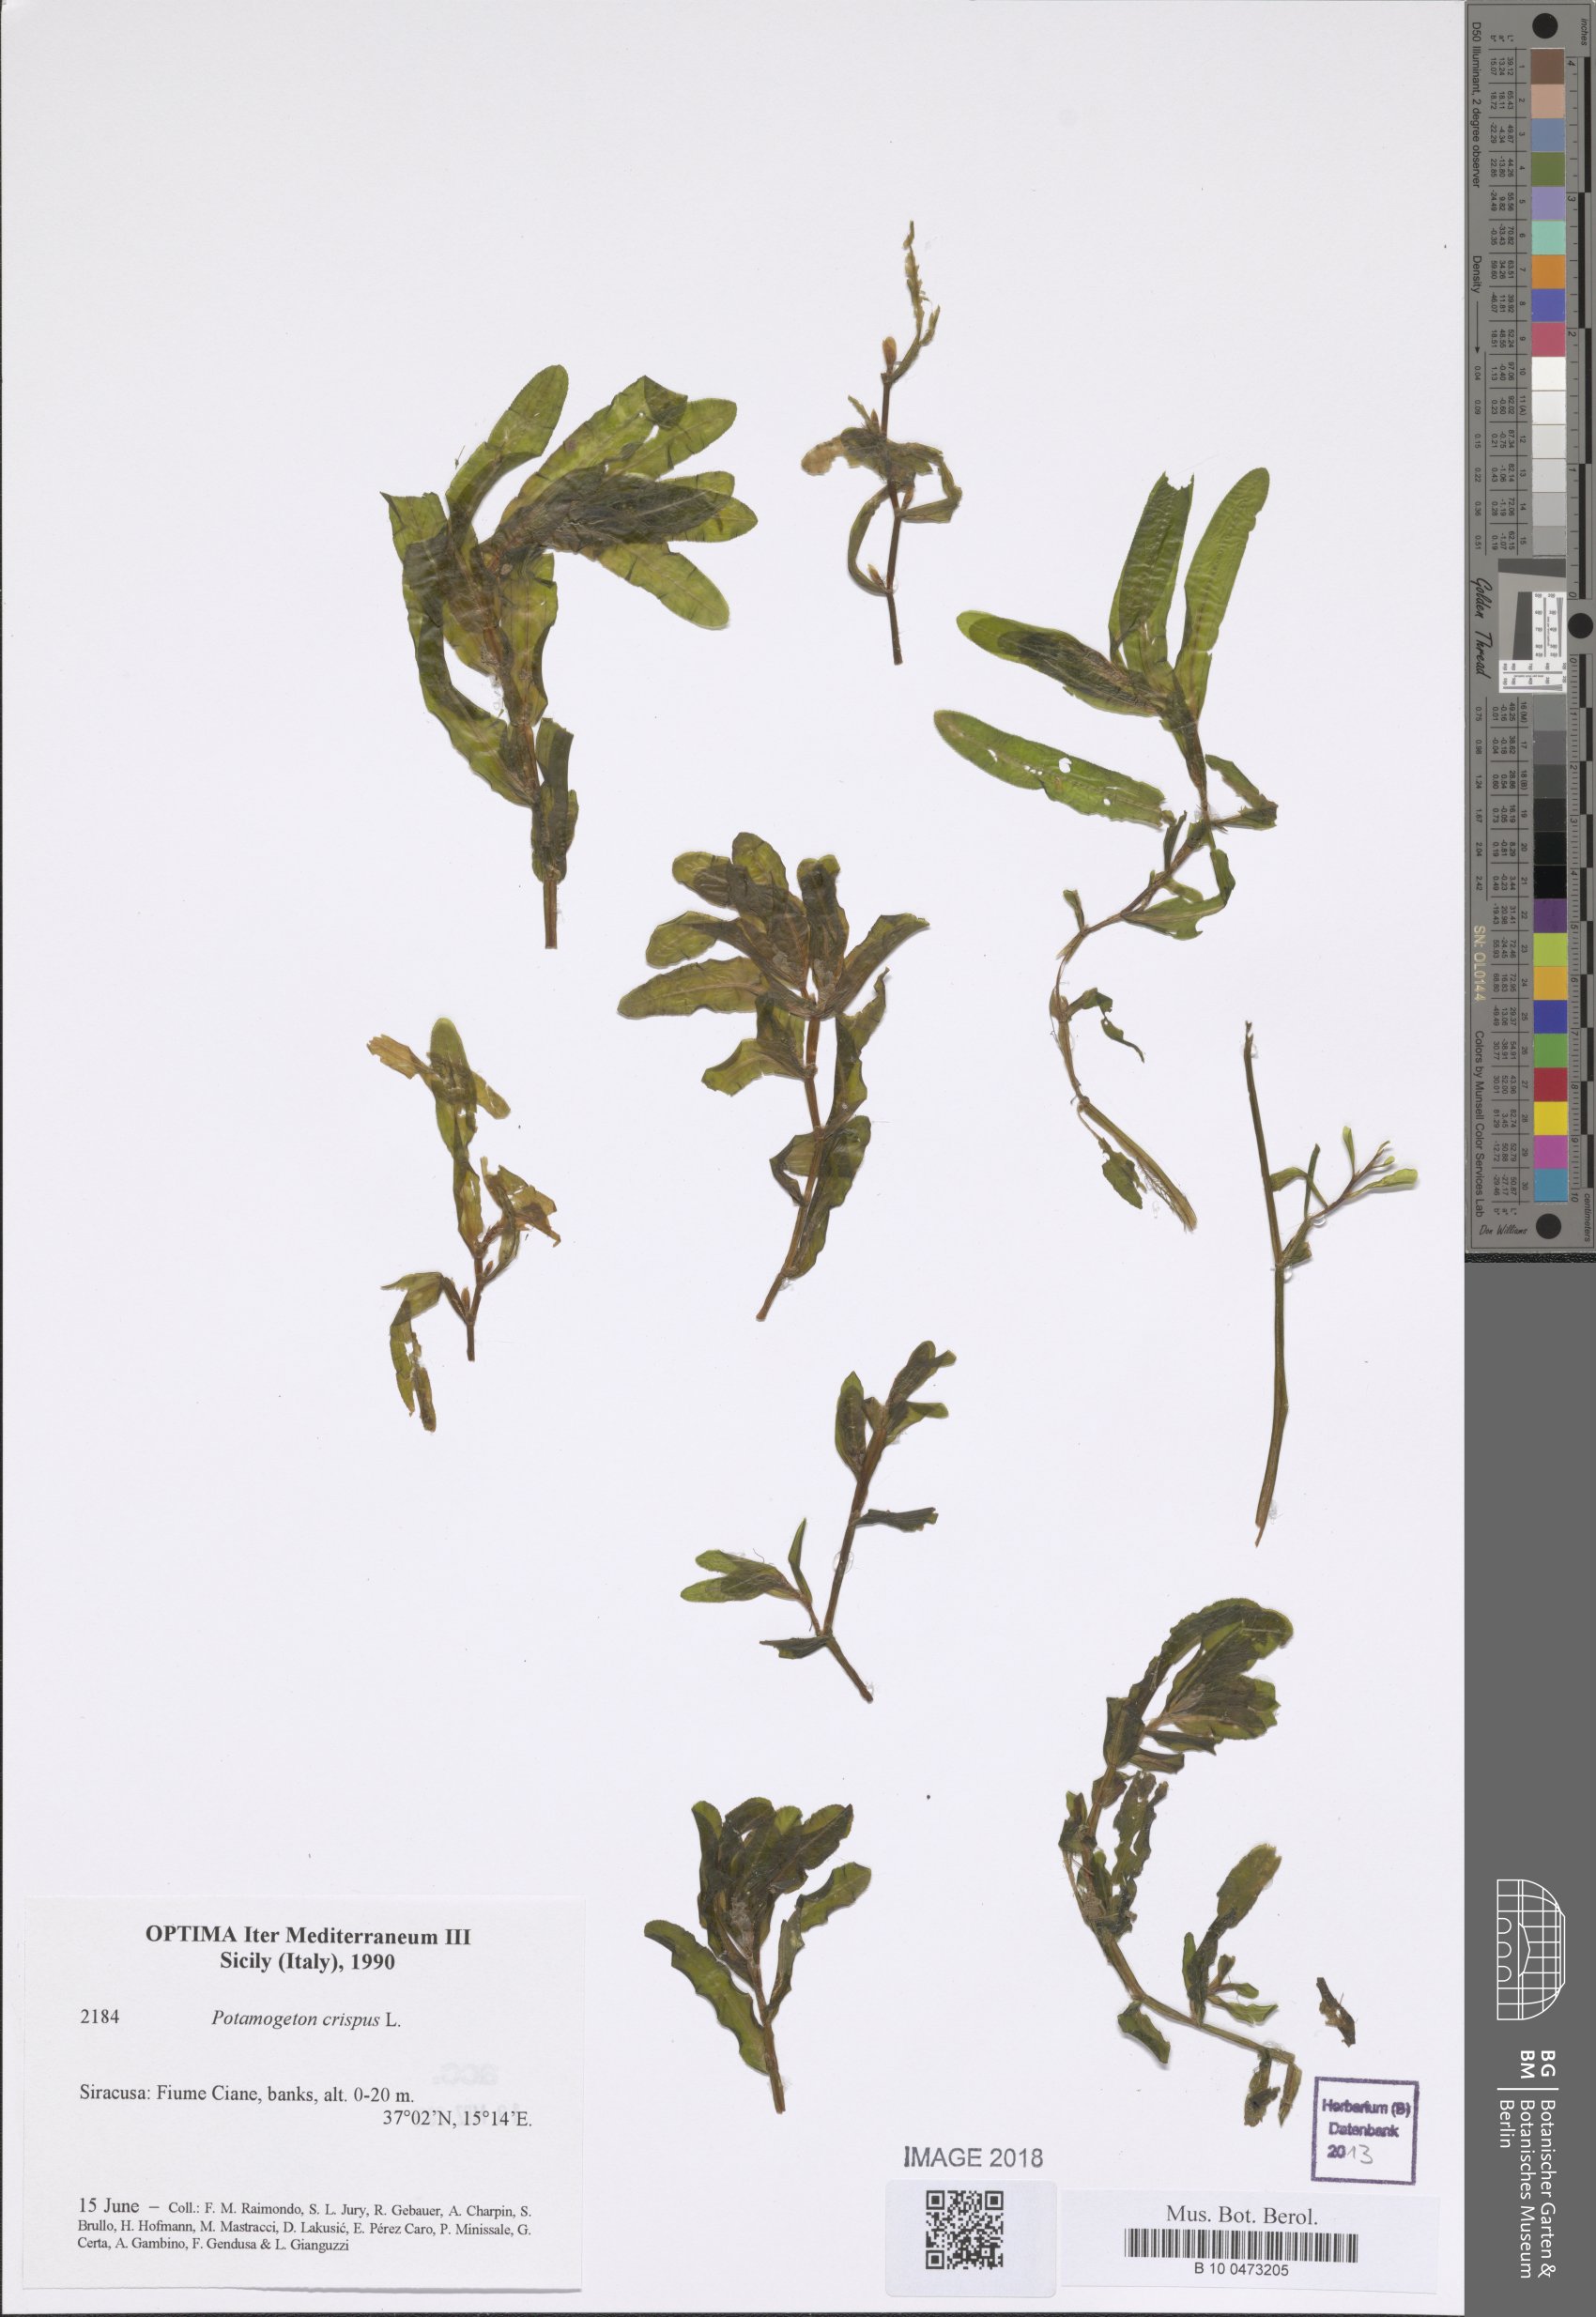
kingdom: Plantae
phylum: Tracheophyta
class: Liliopsida
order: Alismatales
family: Potamogetonaceae
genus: Potamogeton
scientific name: Potamogeton crispus
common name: Curled pondweed
